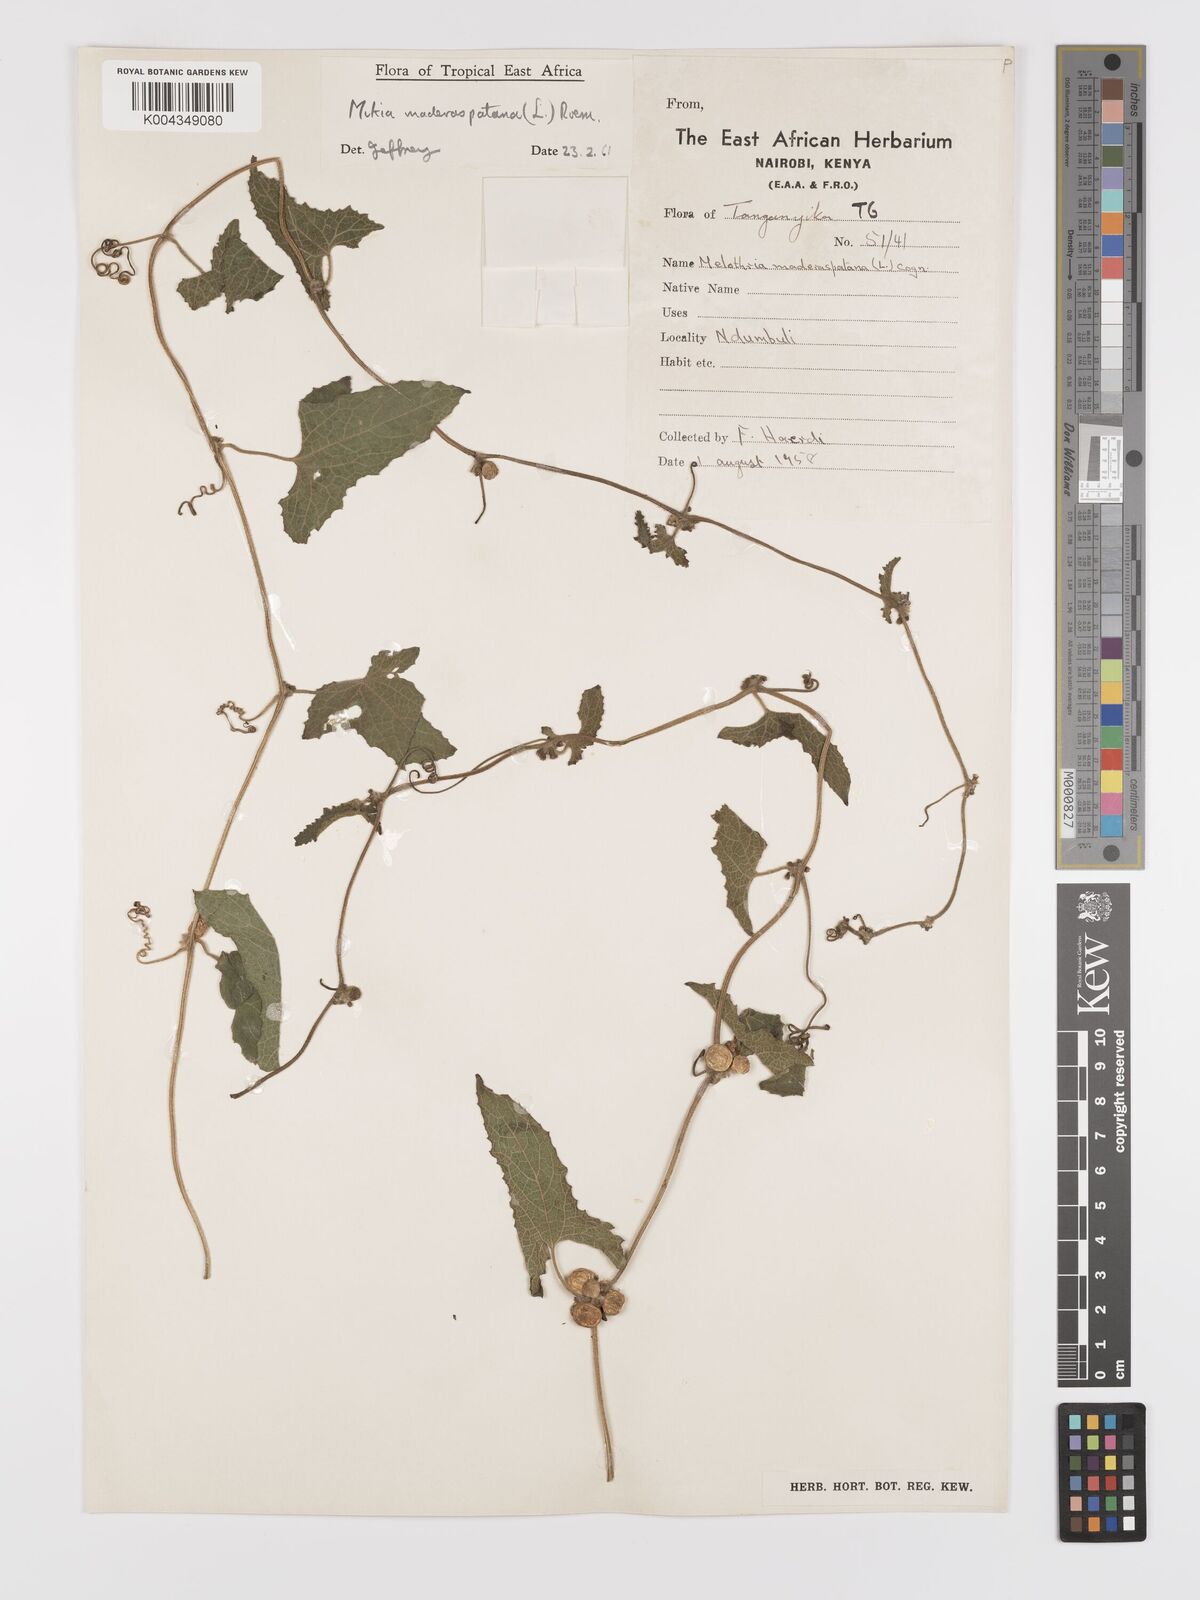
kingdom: Plantae
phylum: Tracheophyta
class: Magnoliopsida
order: Cucurbitales
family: Cucurbitaceae
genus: Cucumis
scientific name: Cucumis maderaspatanus
